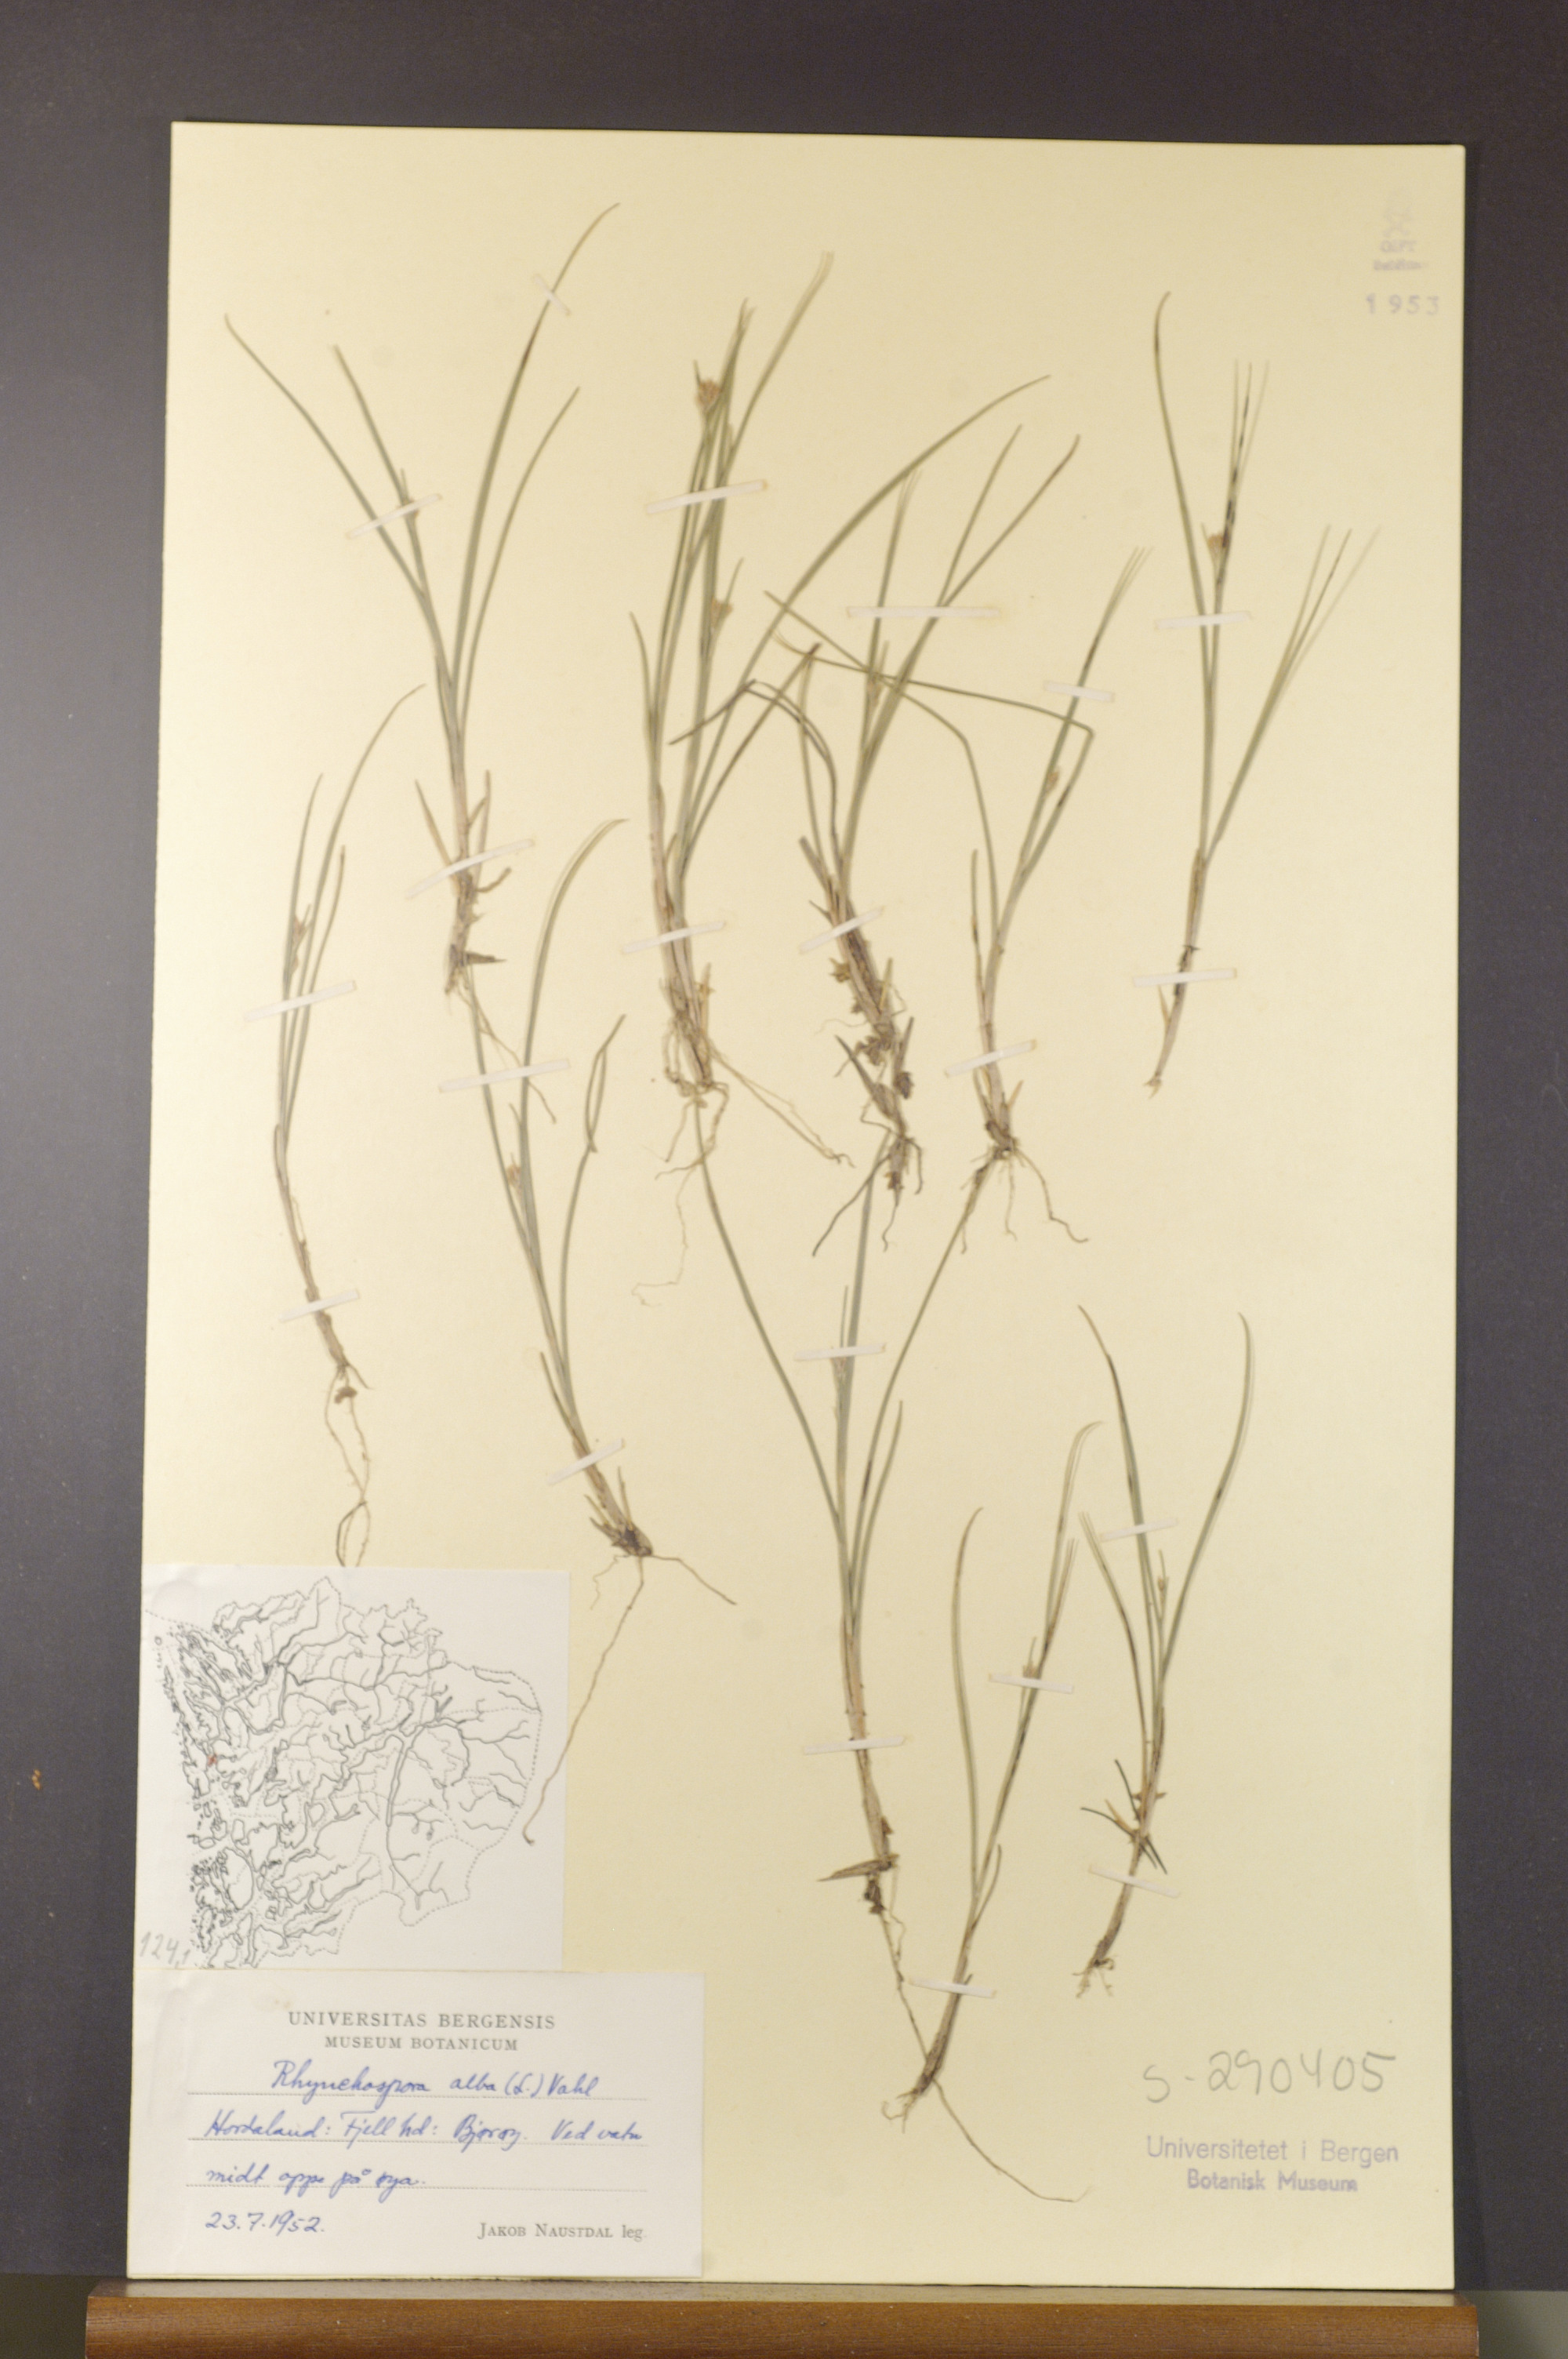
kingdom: Plantae
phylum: Tracheophyta
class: Liliopsida
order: Poales
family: Cyperaceae
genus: Rhynchospora
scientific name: Rhynchospora alba
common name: White beak-sedge
